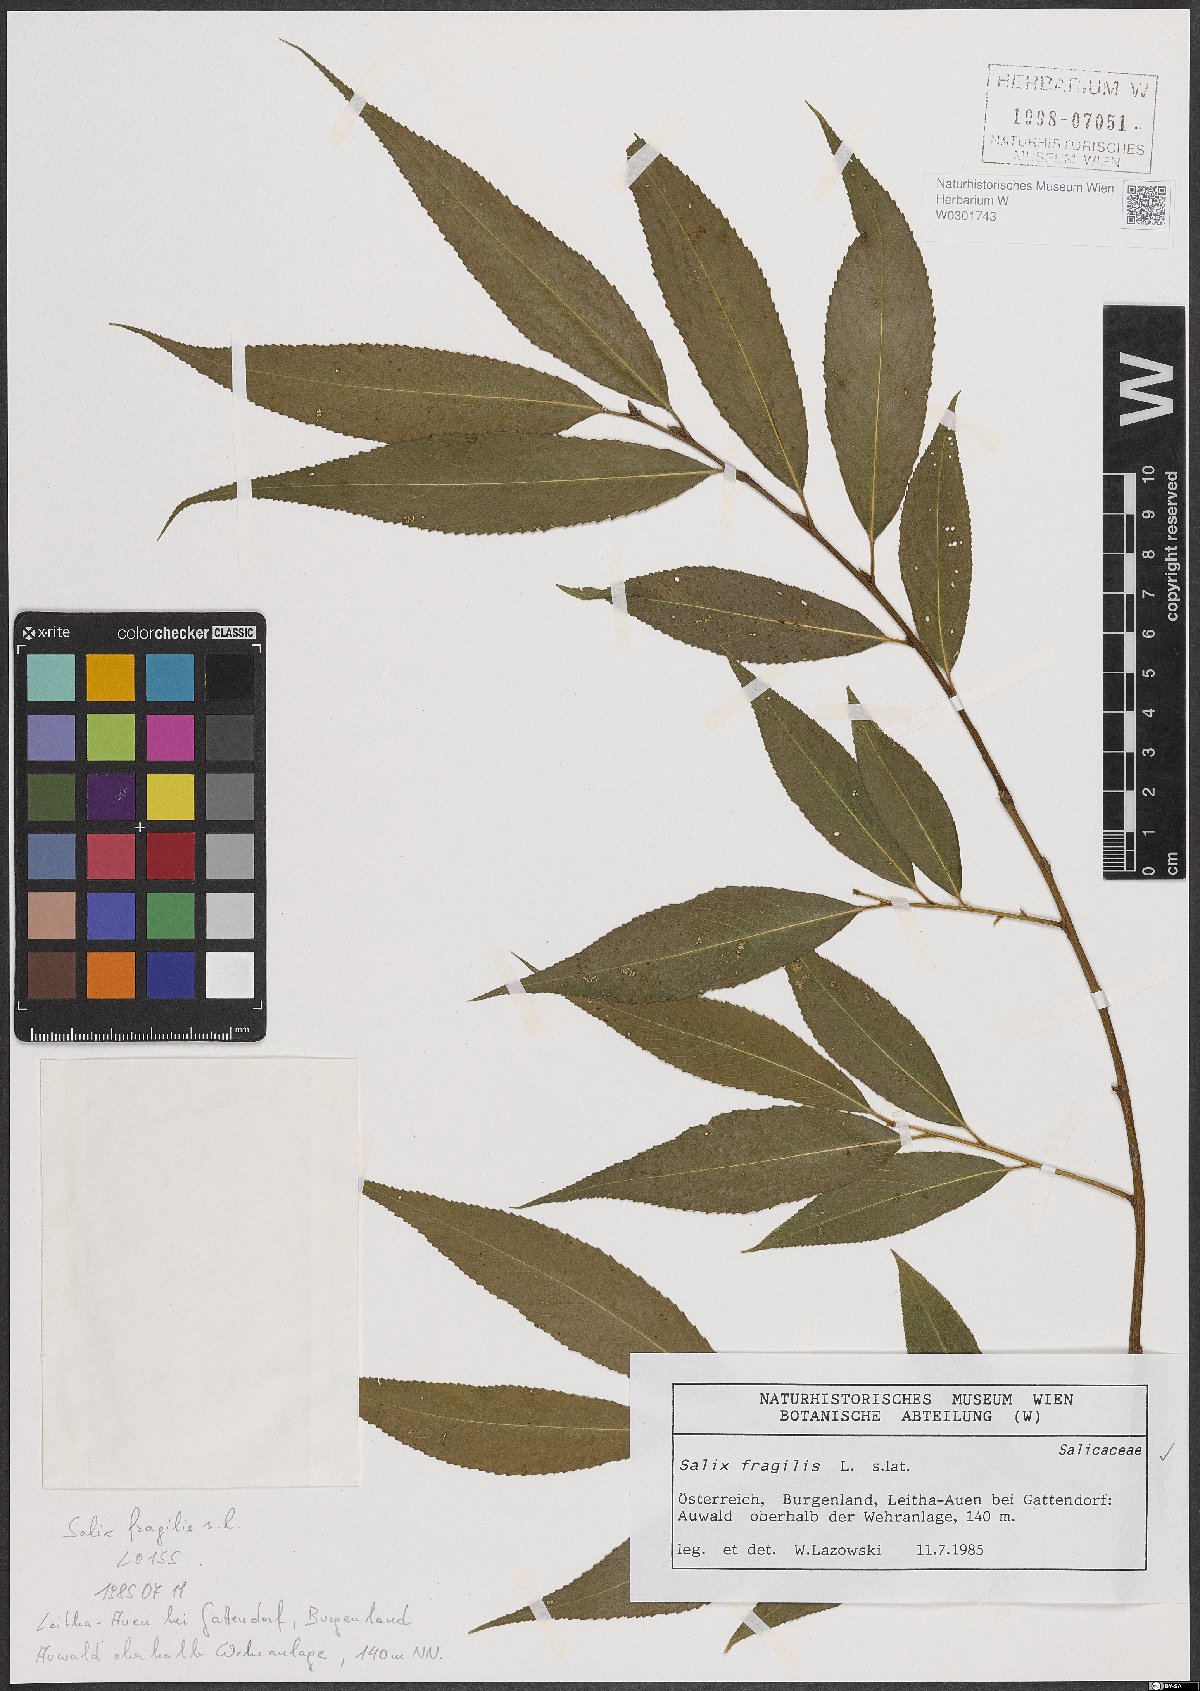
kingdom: Plantae
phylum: Tracheophyta
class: Magnoliopsida
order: Malpighiales
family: Salicaceae
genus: Salix
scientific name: Salix fragilis
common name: Crack willow
